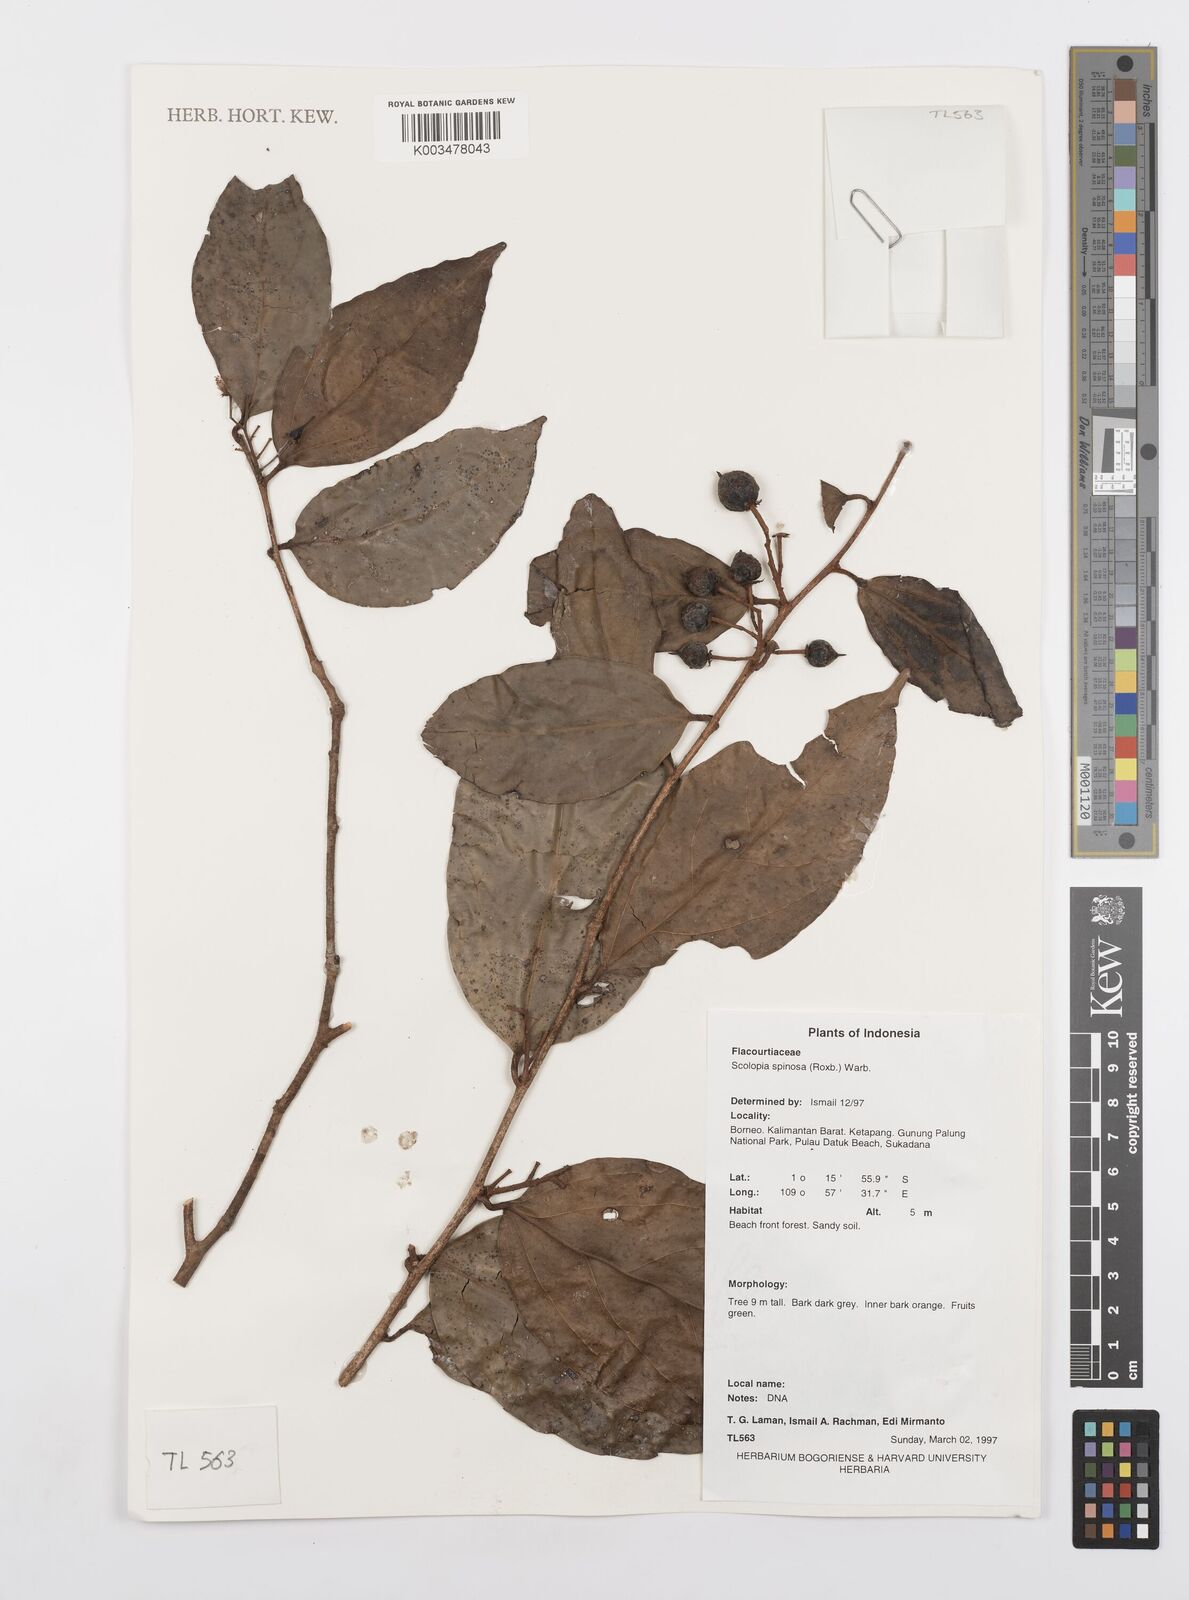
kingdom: Plantae
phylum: Tracheophyta
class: Magnoliopsida
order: Malpighiales
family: Salicaceae
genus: Scolopia
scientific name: Scolopia spinosa
